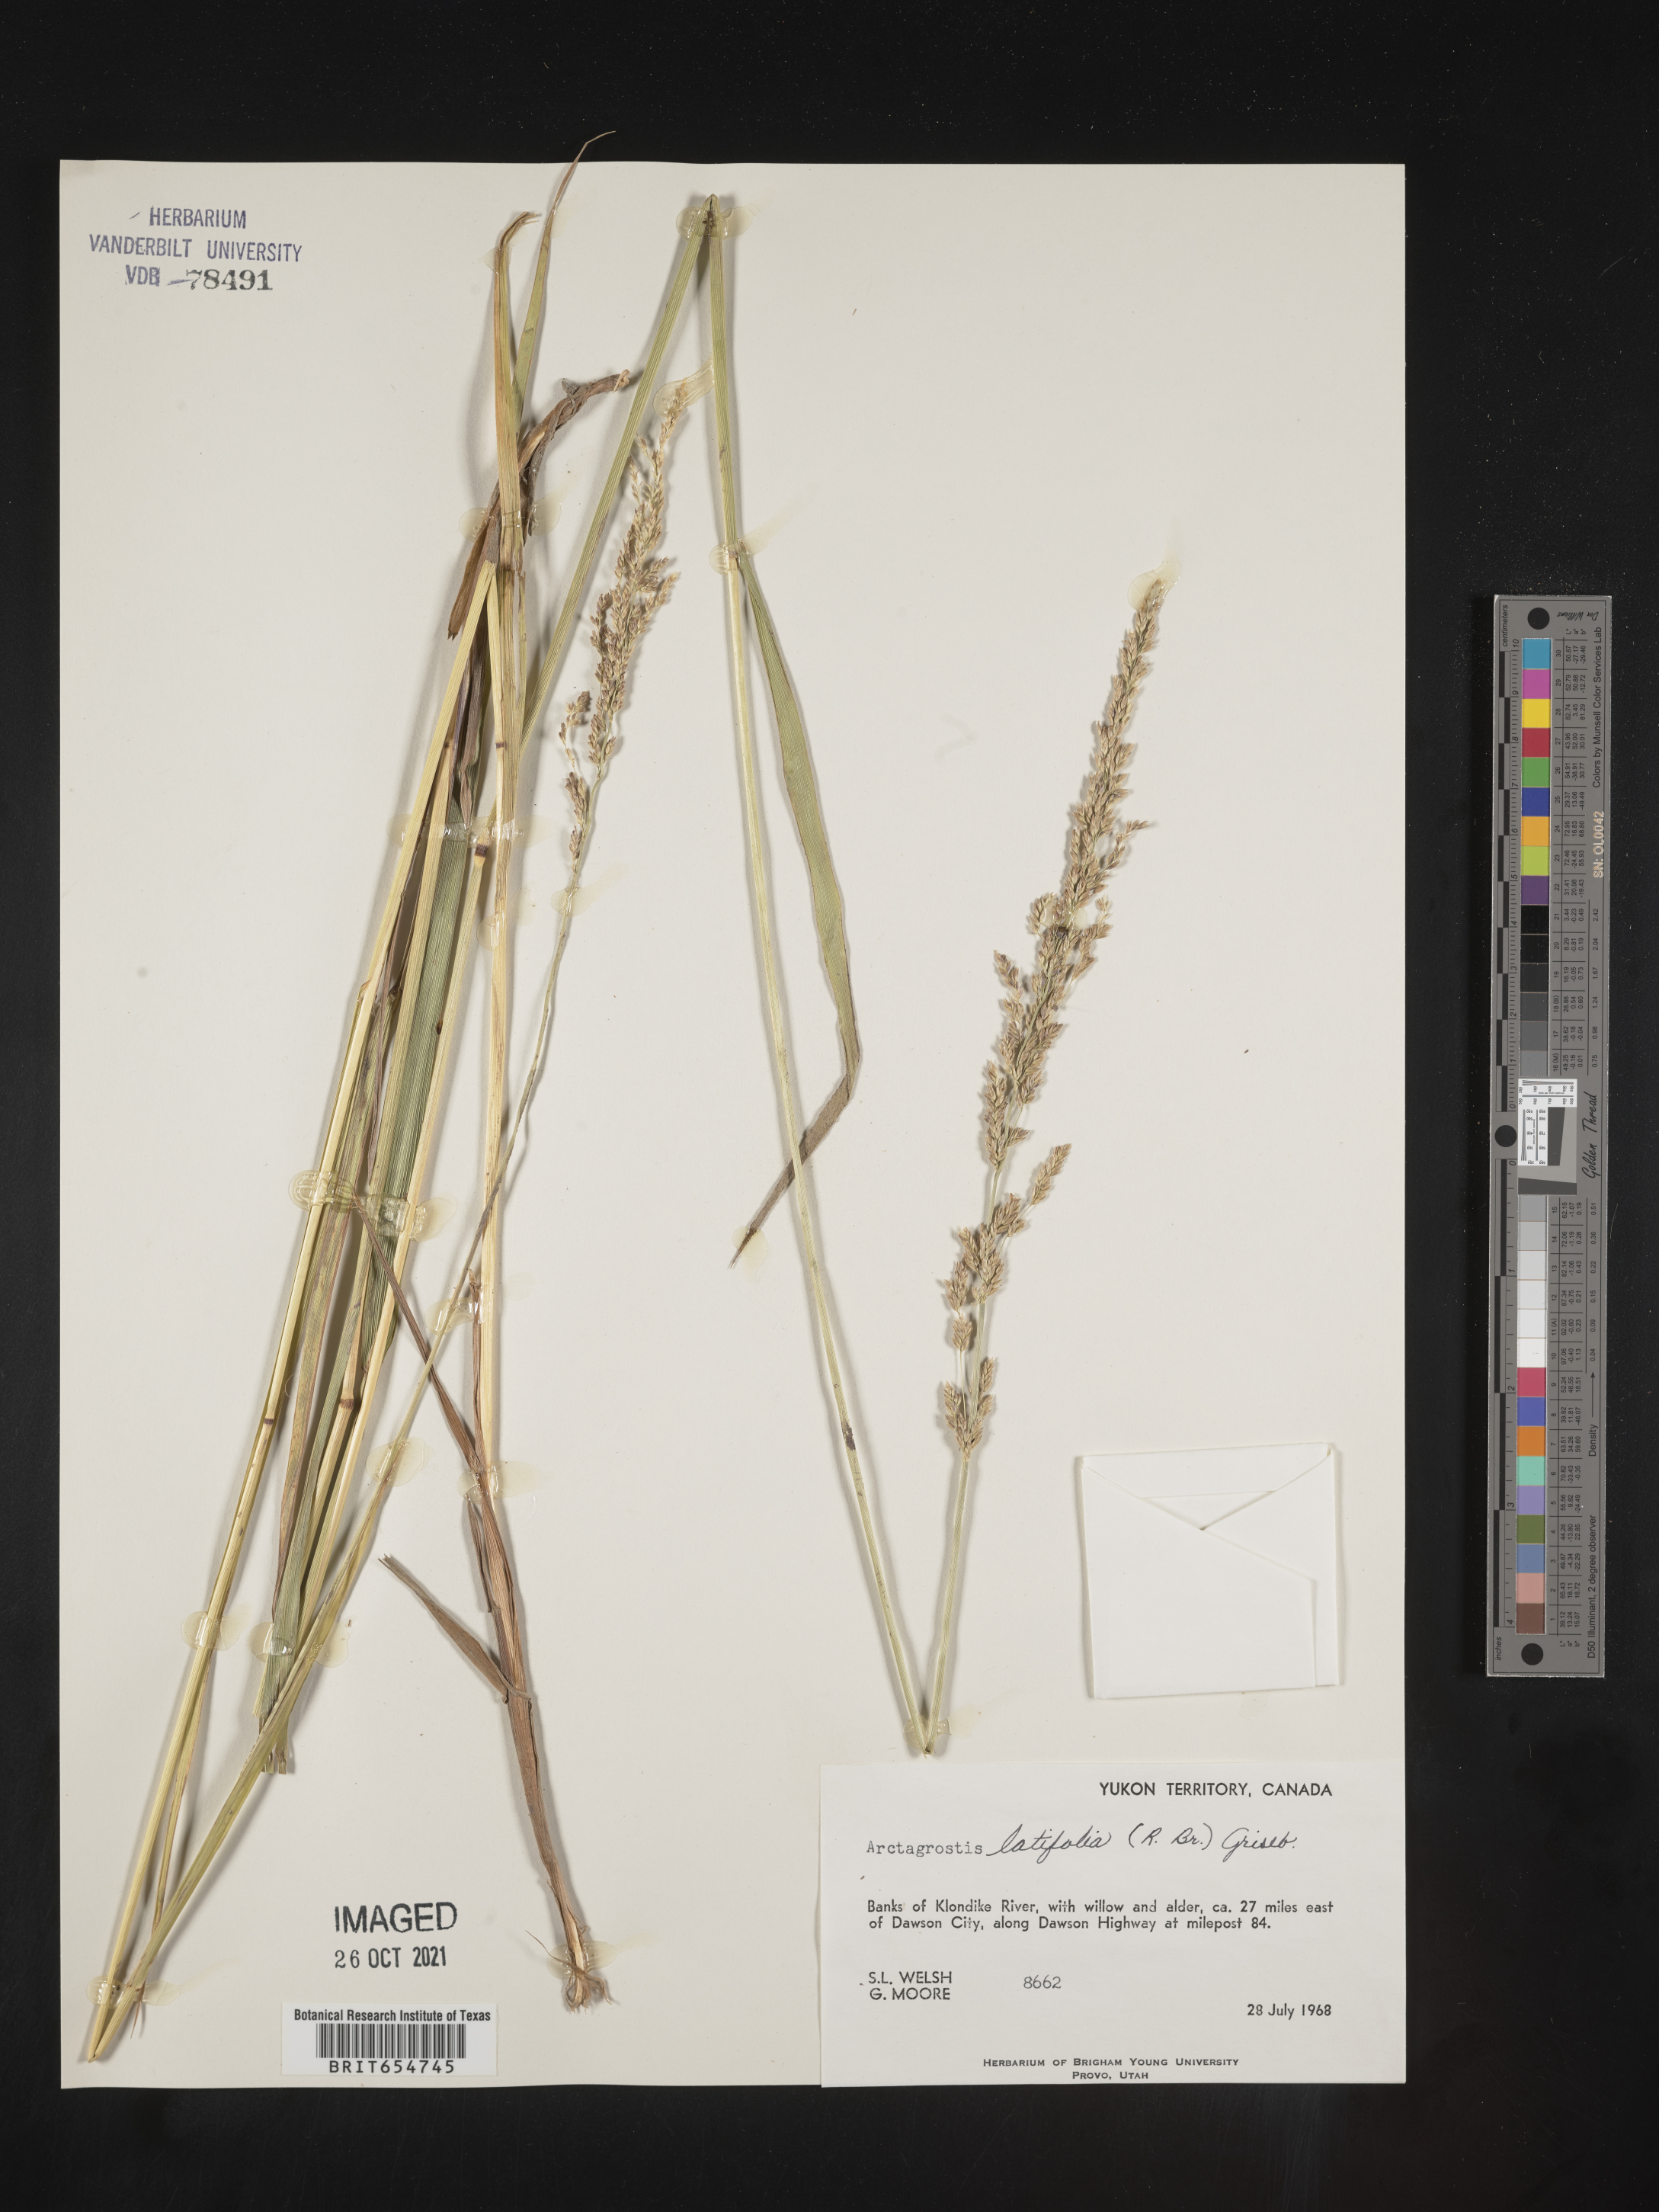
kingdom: Plantae
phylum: Tracheophyta
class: Liliopsida
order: Poales
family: Poaceae
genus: Arctagrostis
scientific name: Arctagrostis
